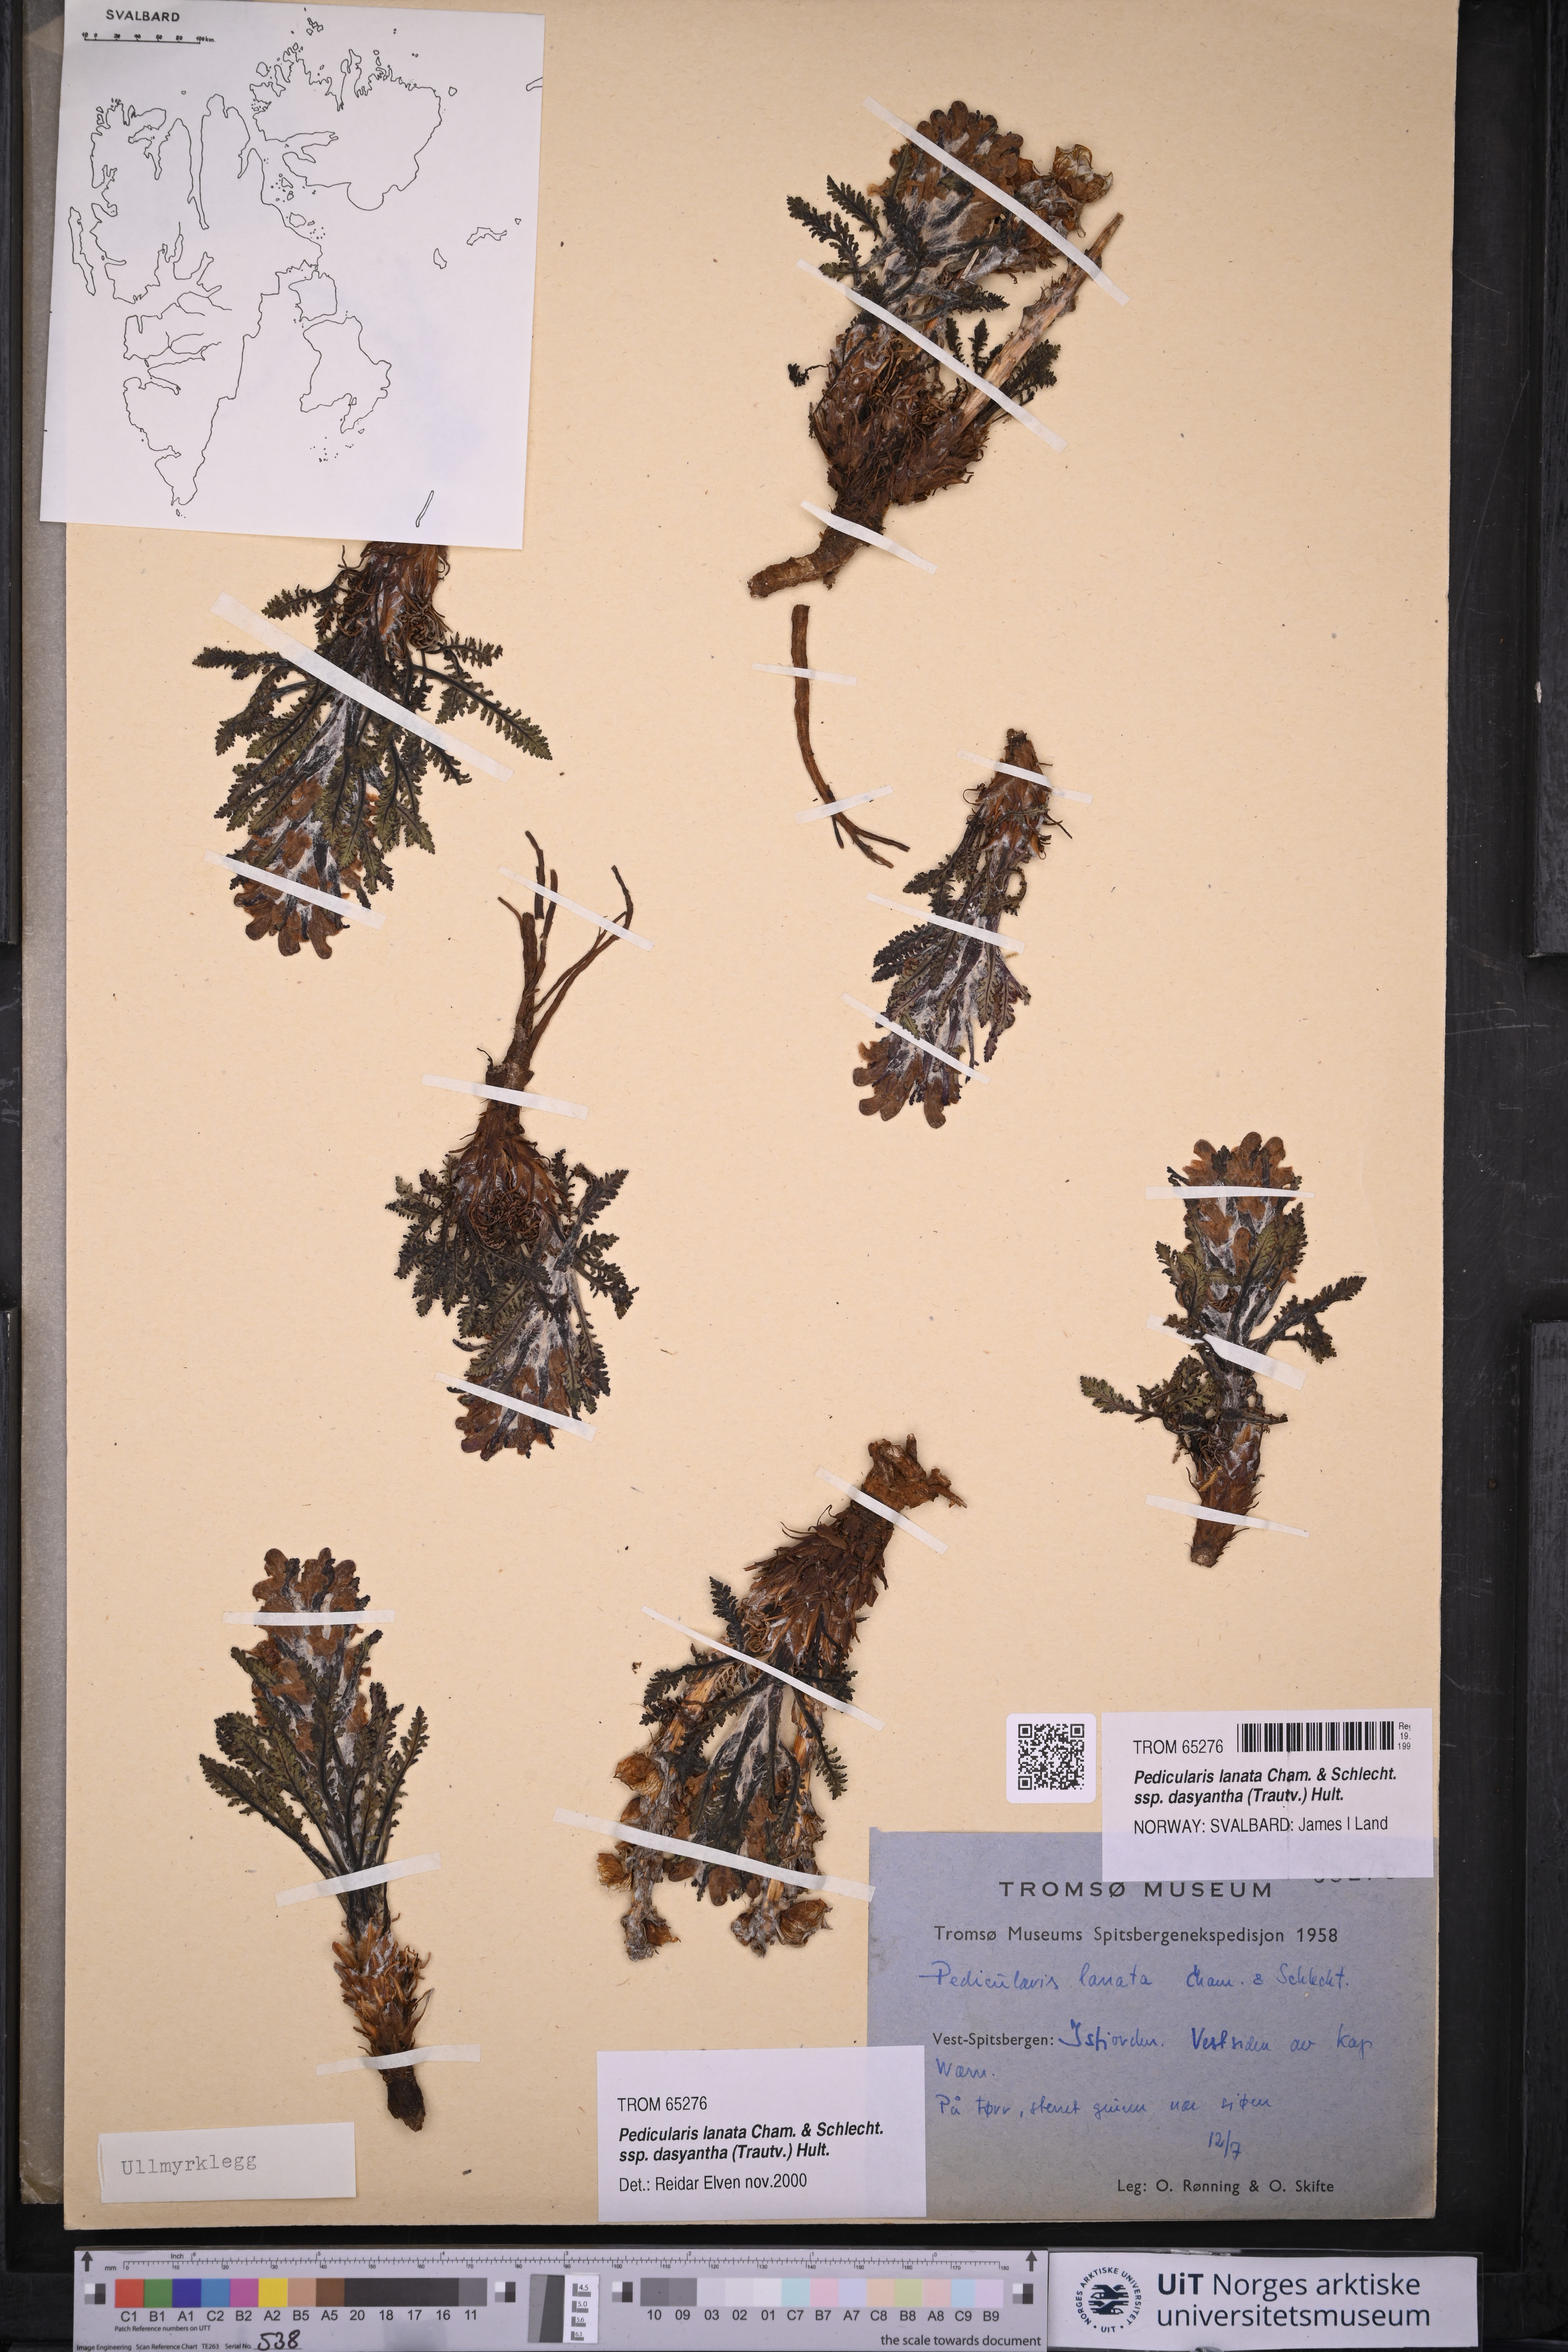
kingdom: Plantae
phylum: Tracheophyta
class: Magnoliopsida
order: Lamiales
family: Orobanchaceae
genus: Pedicularis
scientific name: Pedicularis dasyantha
